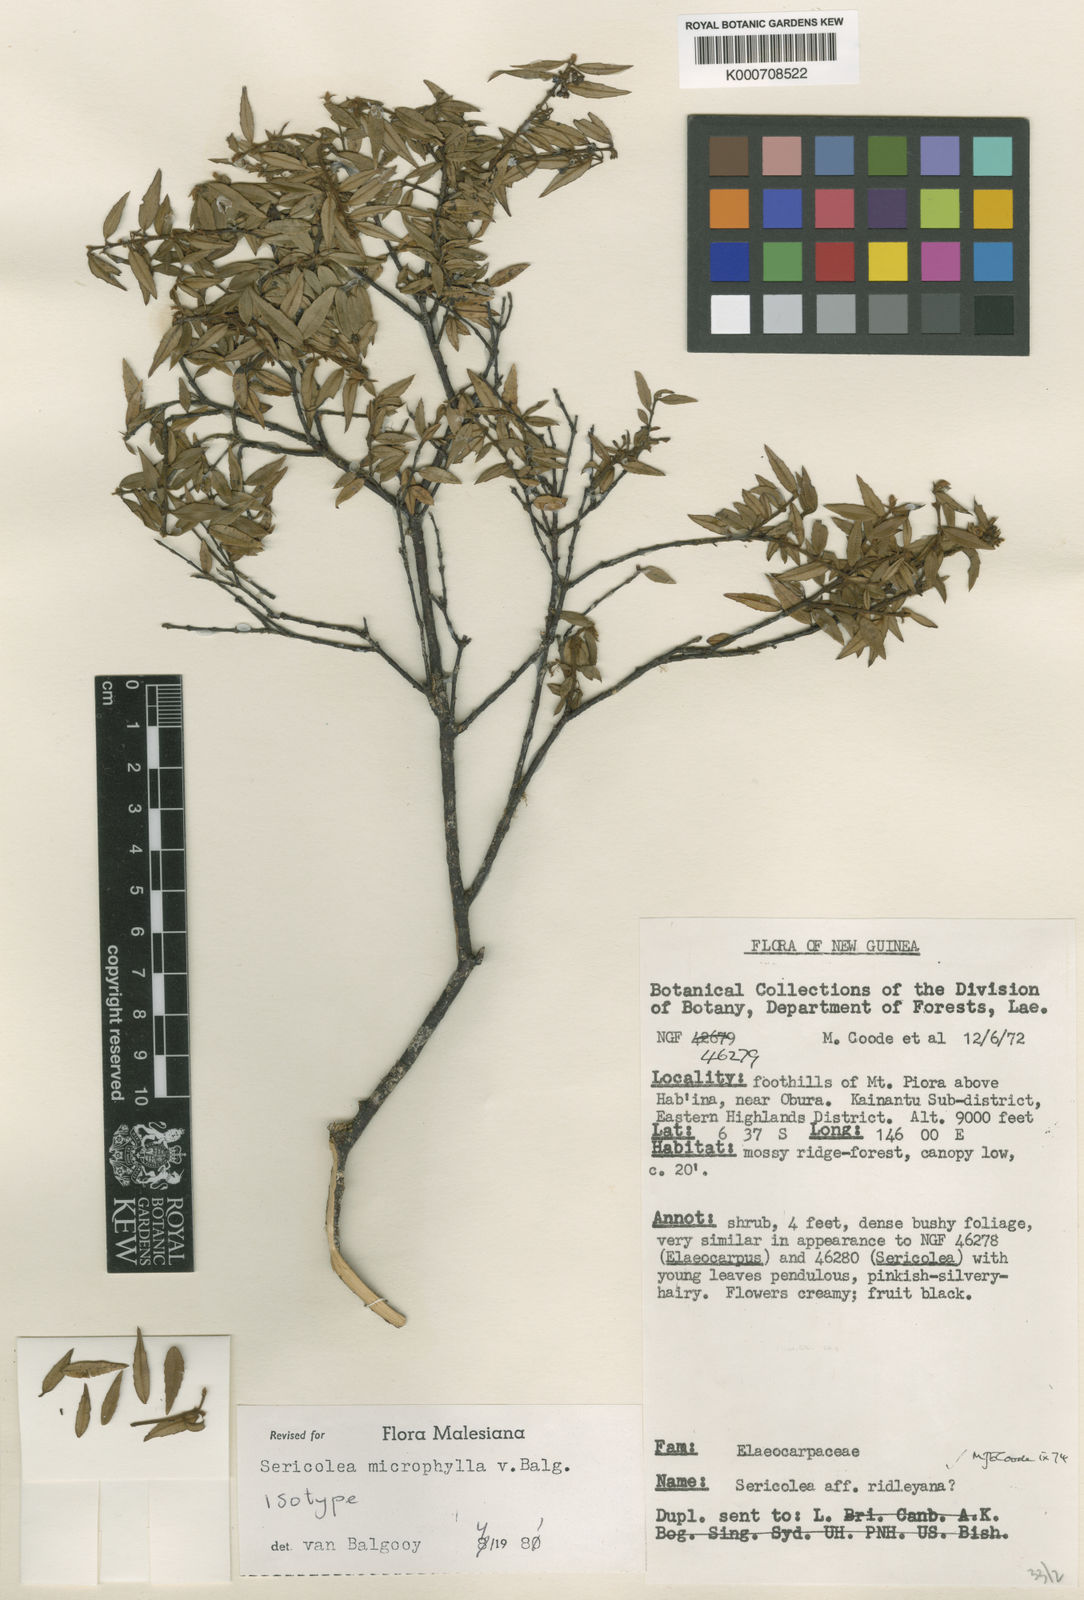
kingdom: Plantae
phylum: Tracheophyta
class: Magnoliopsida
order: Oxalidales
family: Elaeocarpaceae
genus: Sericolea
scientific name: Sericolea microphylla
